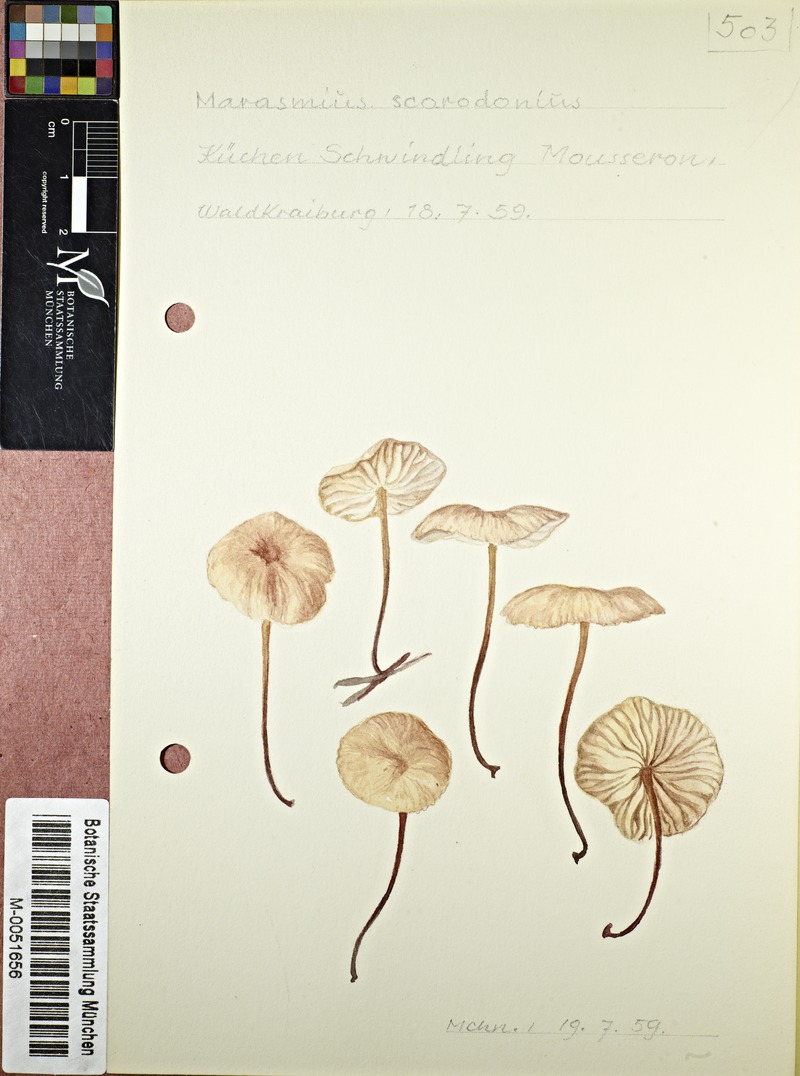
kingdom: Fungi
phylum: Basidiomycota
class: Agaricomycetes
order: Agaricales
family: Omphalotaceae
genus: Mycetinis
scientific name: Mycetinis scorodonius
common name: Vampires bane
